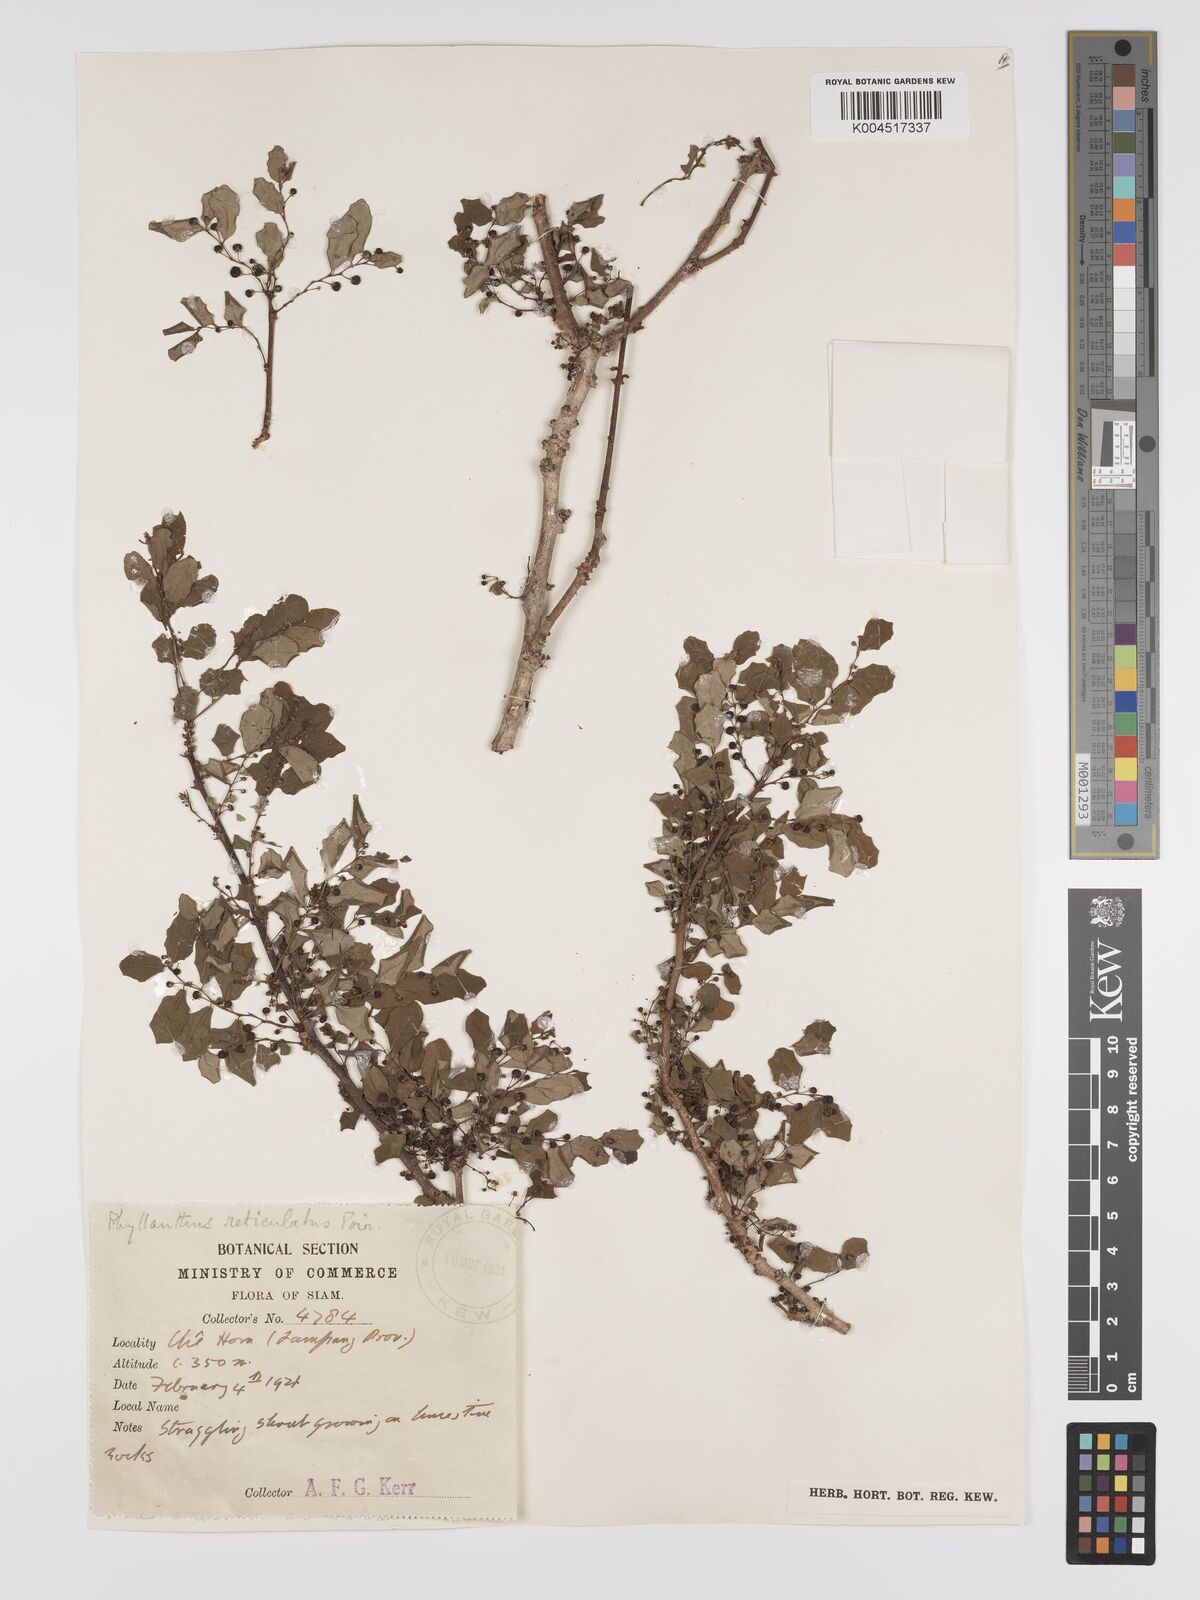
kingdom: Plantae
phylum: Tracheophyta
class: Magnoliopsida
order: Malpighiales
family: Phyllanthaceae
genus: Phyllanthus
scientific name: Phyllanthus reticulatus
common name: Potato bush
